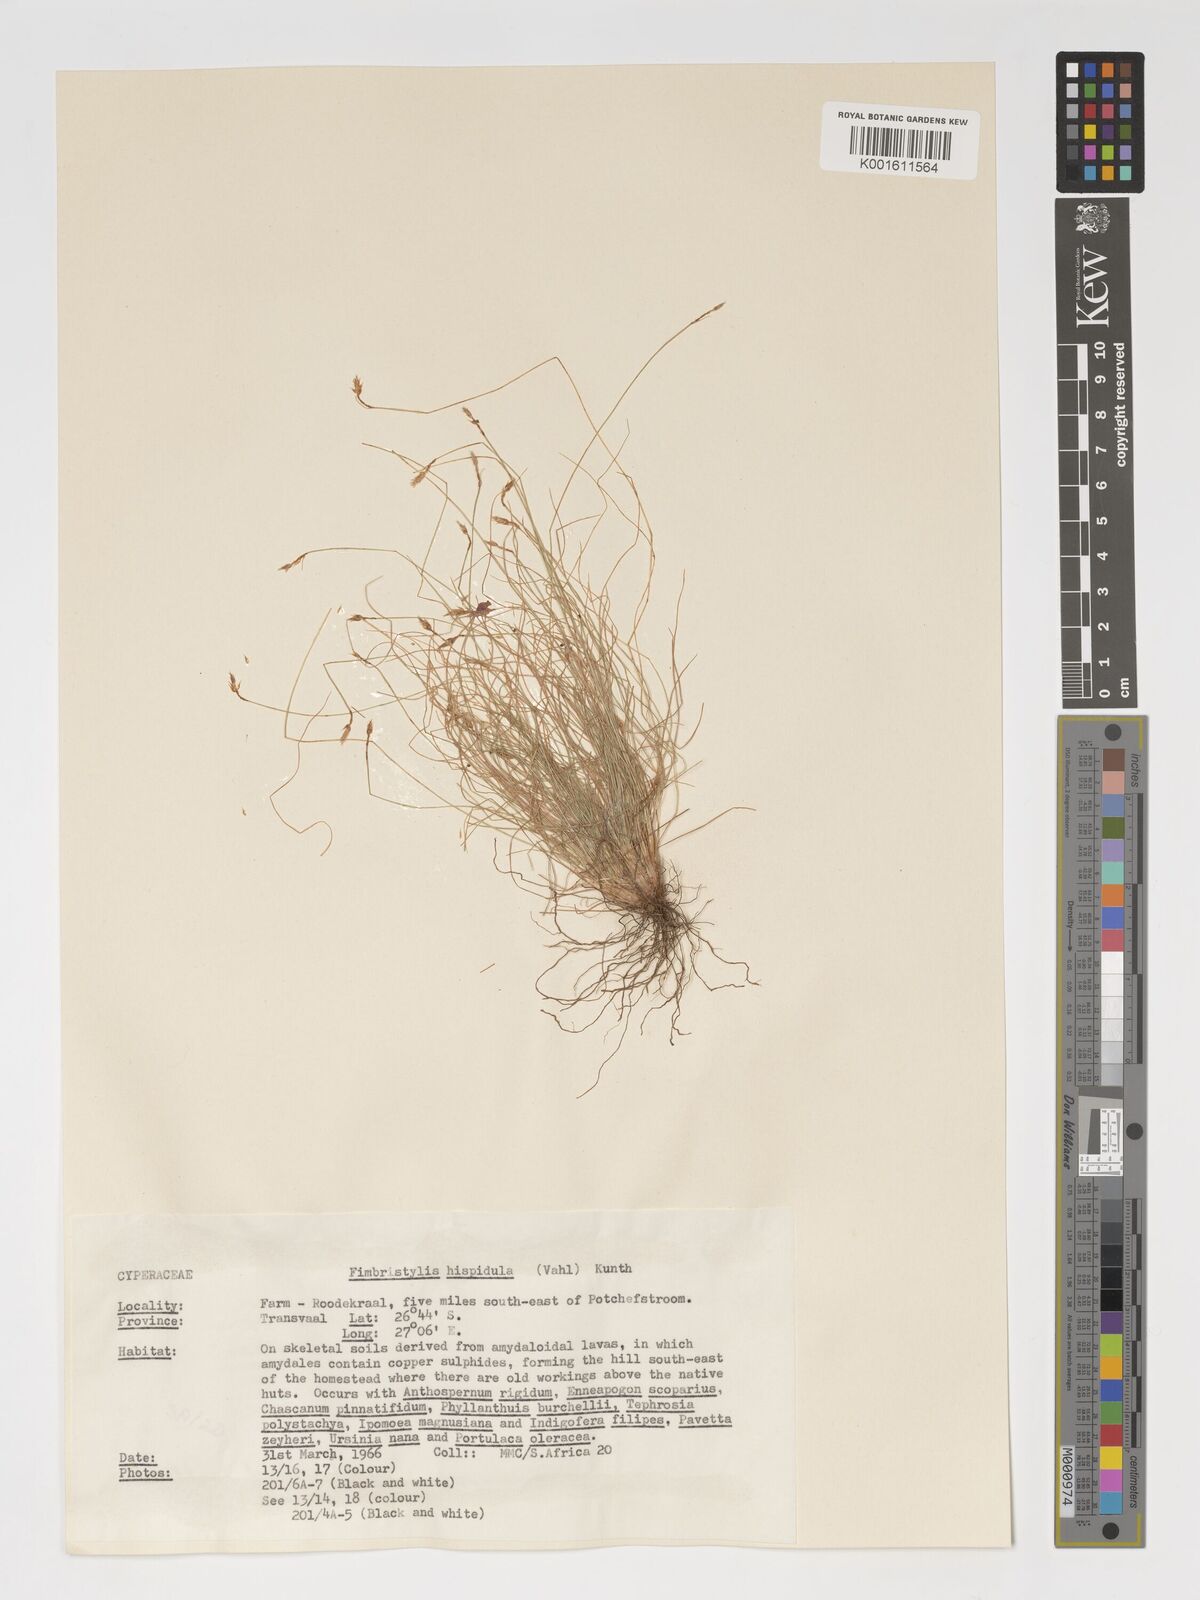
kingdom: Plantae
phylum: Tracheophyta
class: Liliopsida
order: Poales
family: Cyperaceae
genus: Bulbostylis
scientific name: Bulbostylis hispidula
